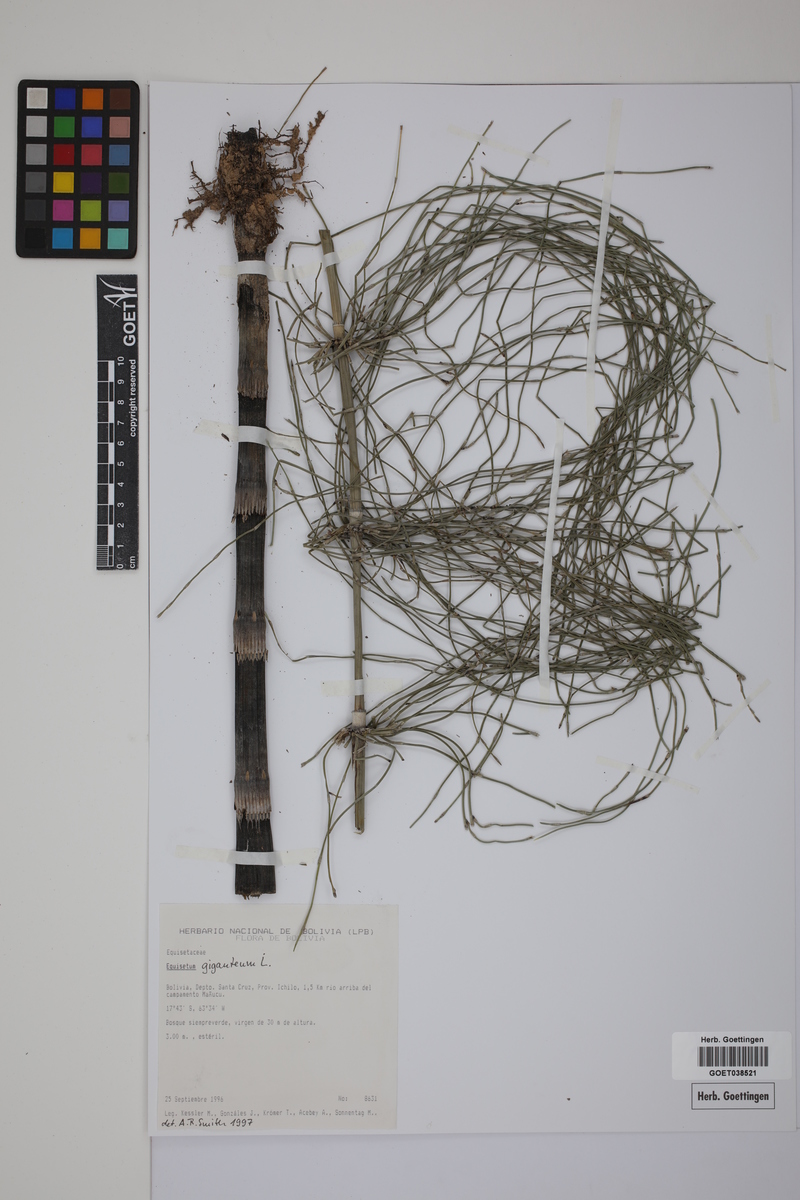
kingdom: Plantae
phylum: Tracheophyta
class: Polypodiopsida
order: Equisetales
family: Equisetaceae
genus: Equisetum
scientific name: Equisetum giganteum
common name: Giant horsetail
